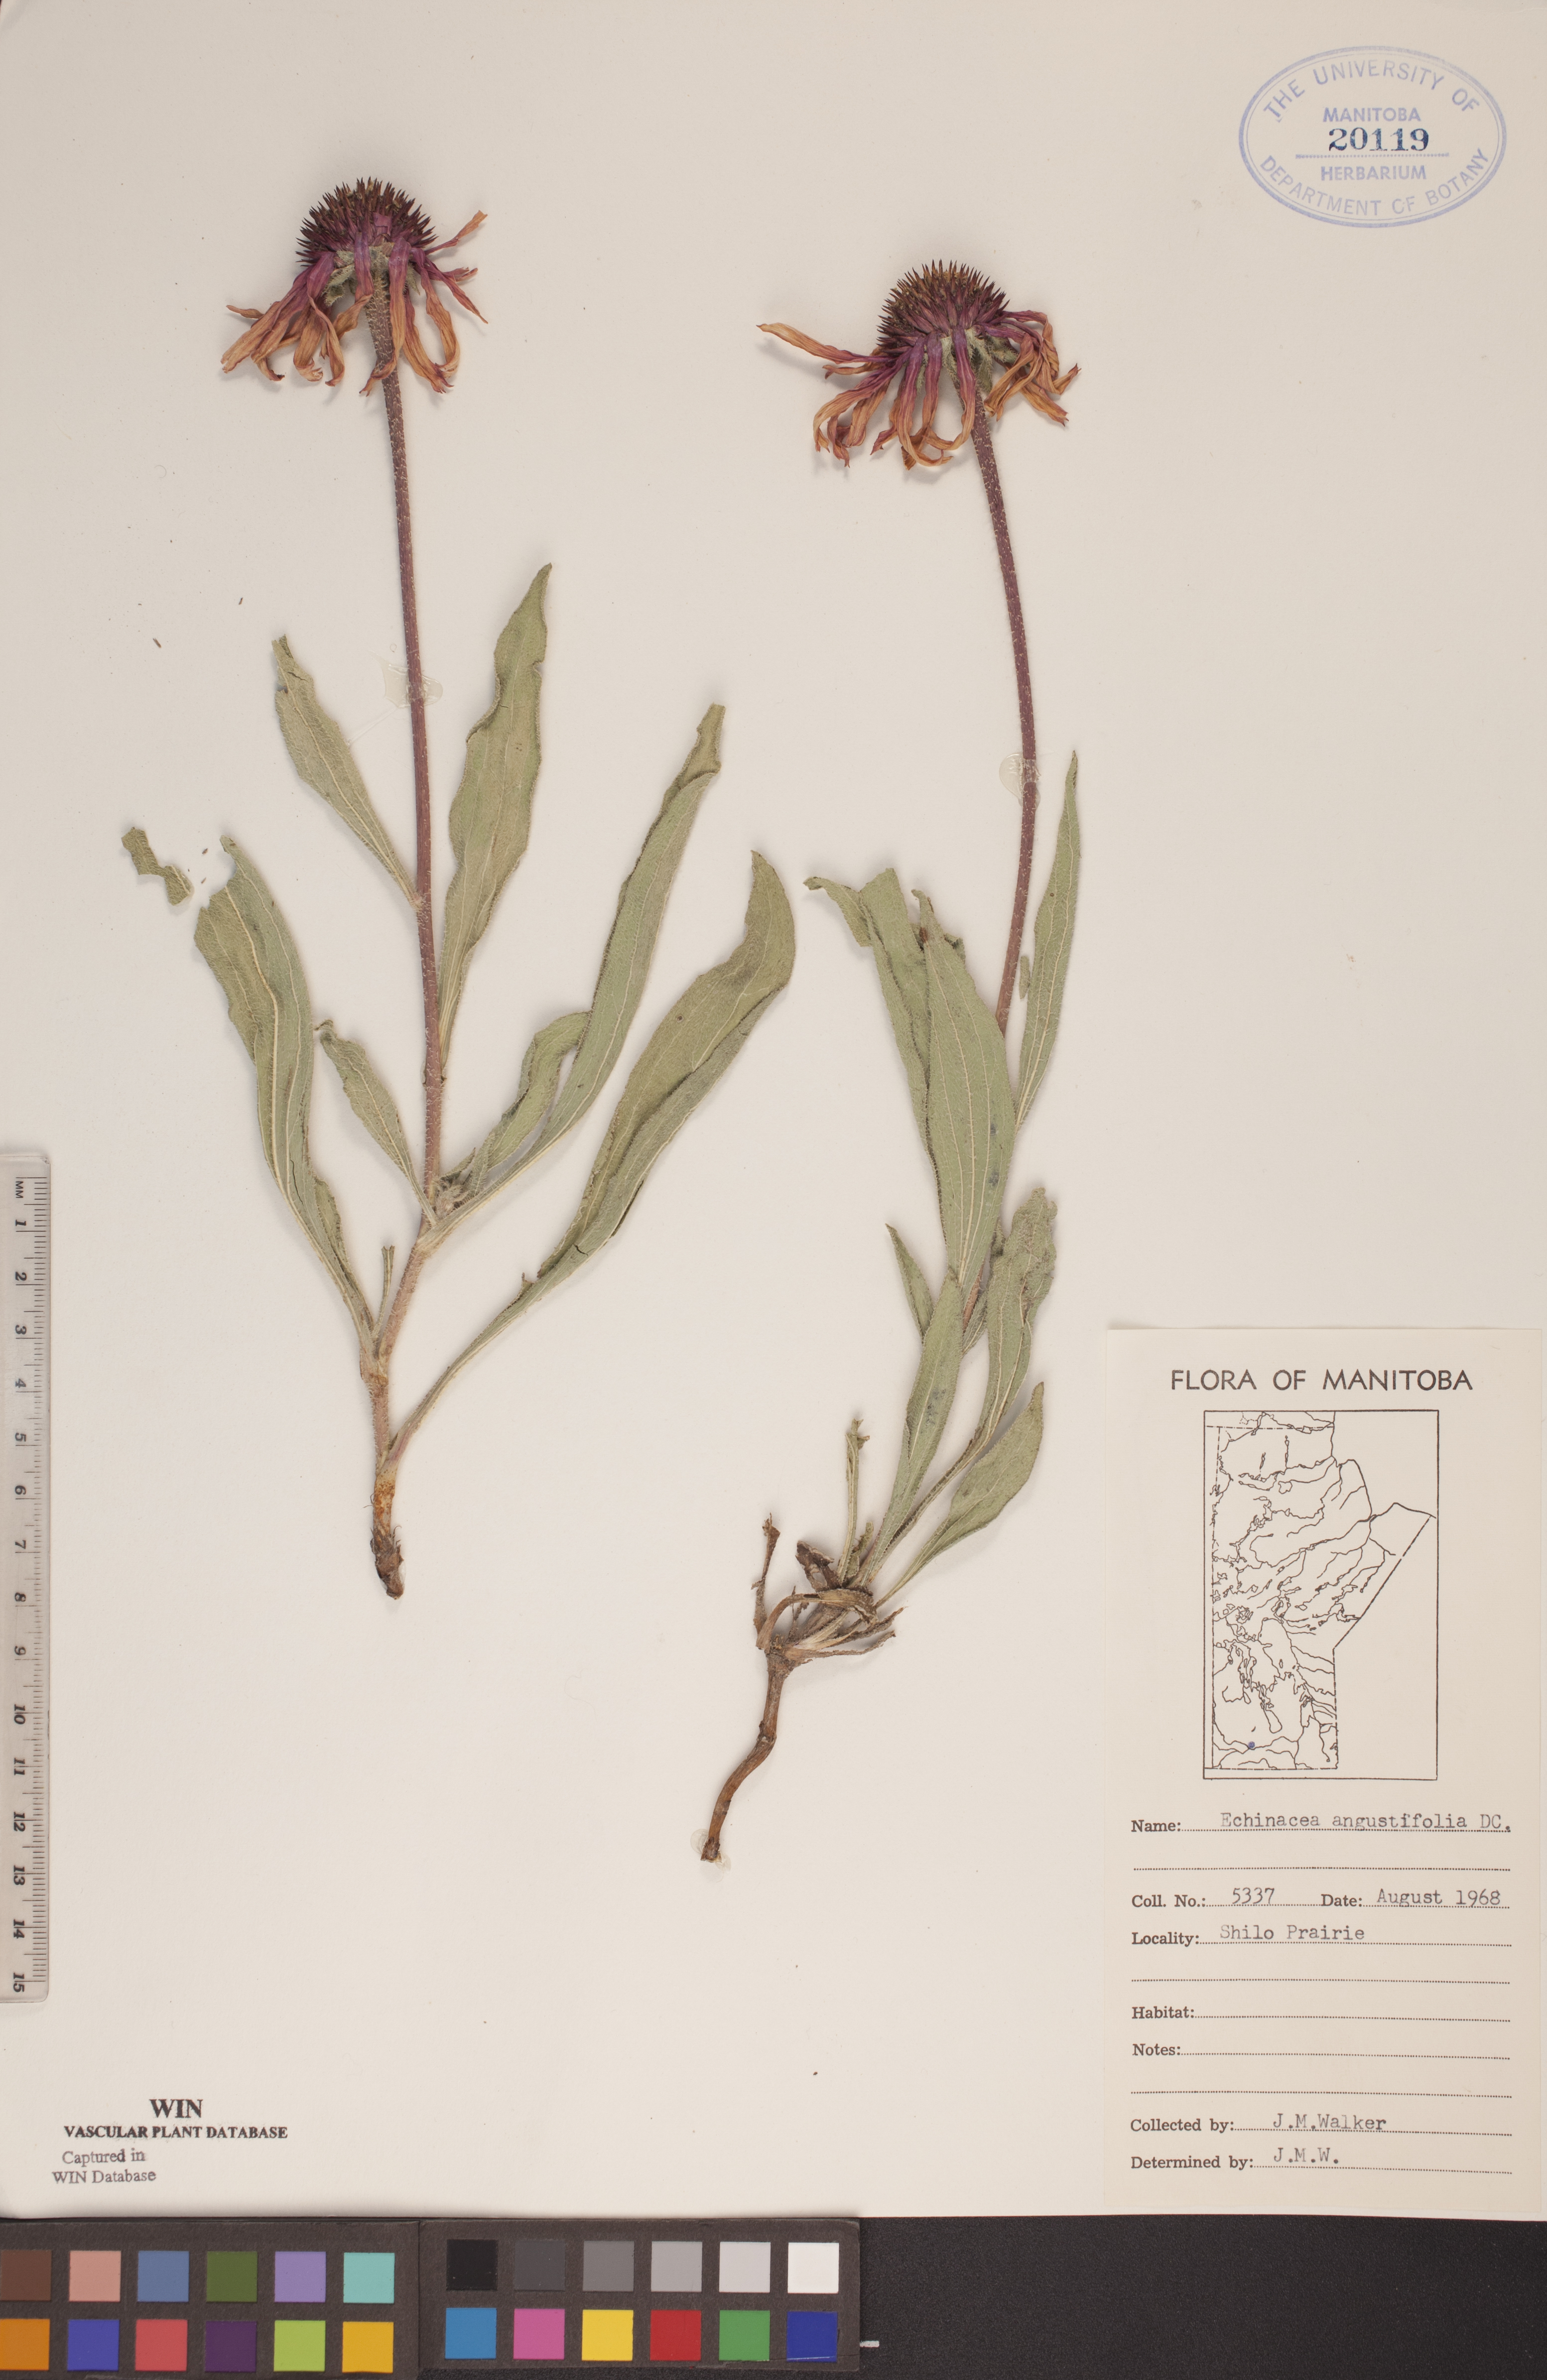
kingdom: Plantae
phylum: Tracheophyta
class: Magnoliopsida
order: Asterales
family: Asteraceae
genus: Echinacea
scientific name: Echinacea angustifolia
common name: Black-sampson echinacea
